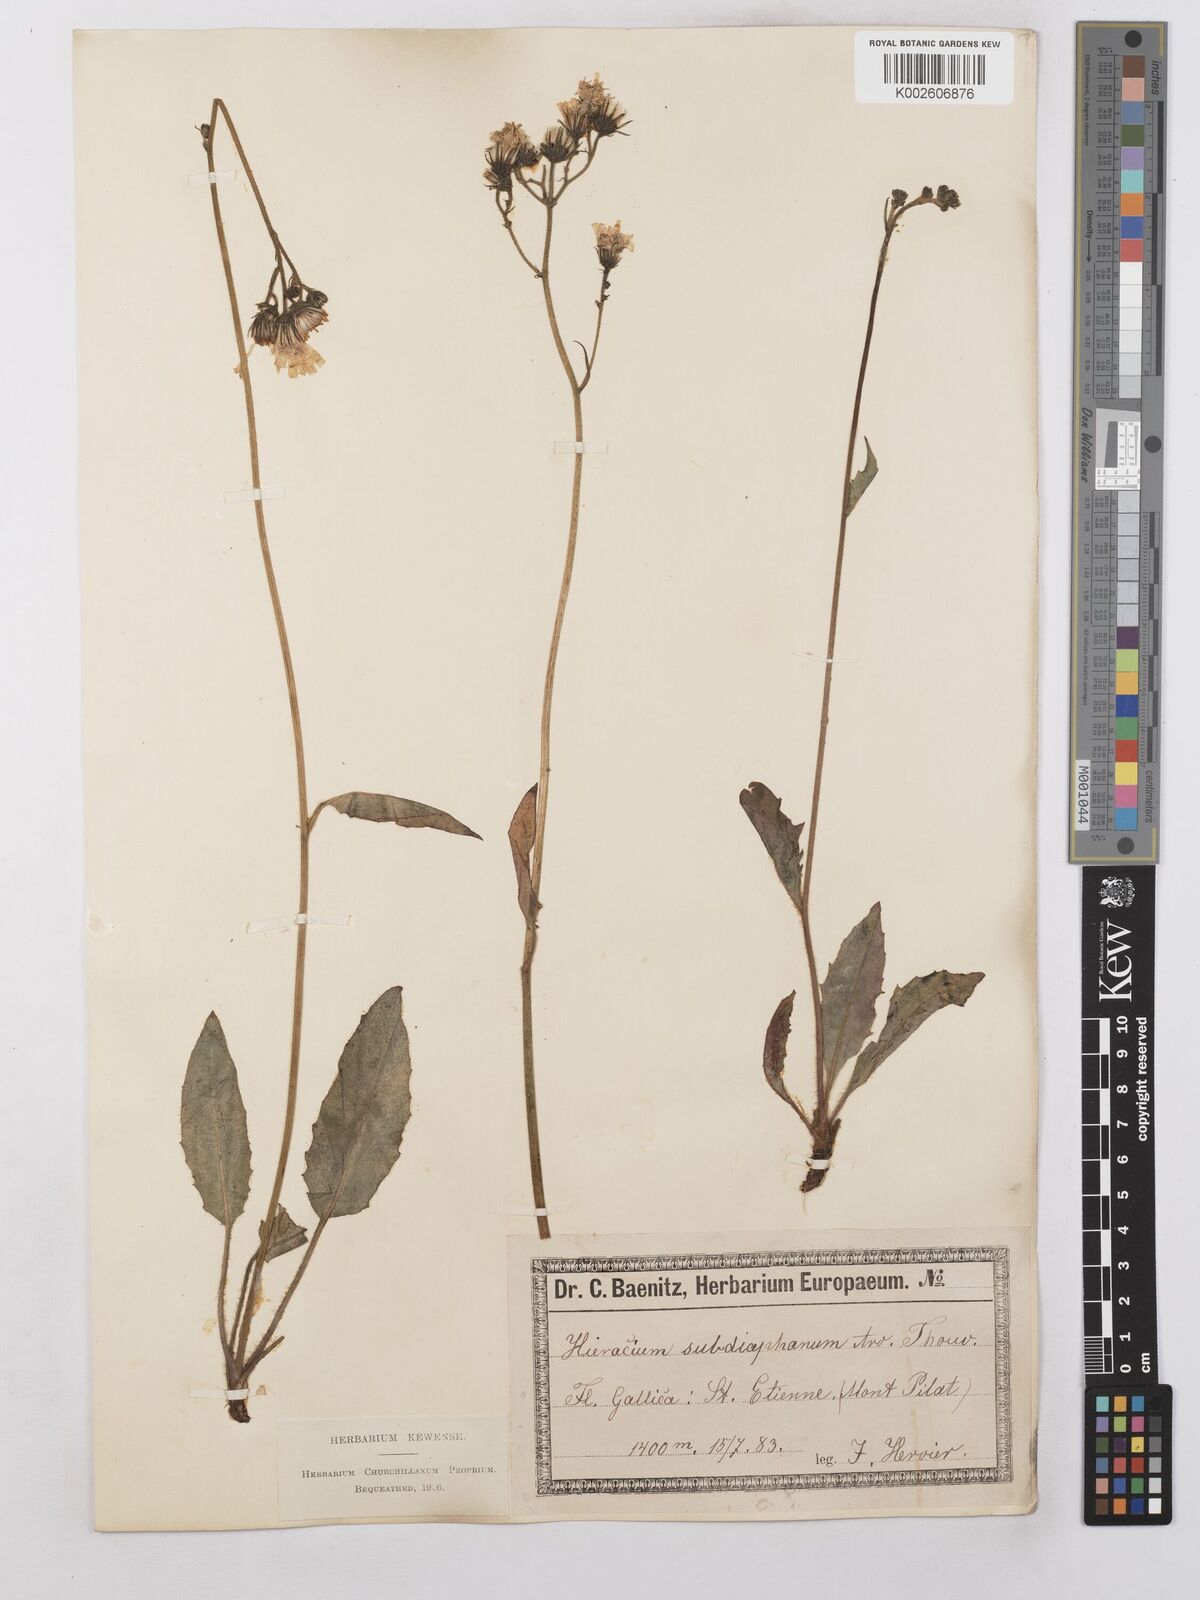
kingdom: Plantae
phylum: Tracheophyta
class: Magnoliopsida
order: Asterales
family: Asteraceae
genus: Hieracium
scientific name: Hieracium levicaule
